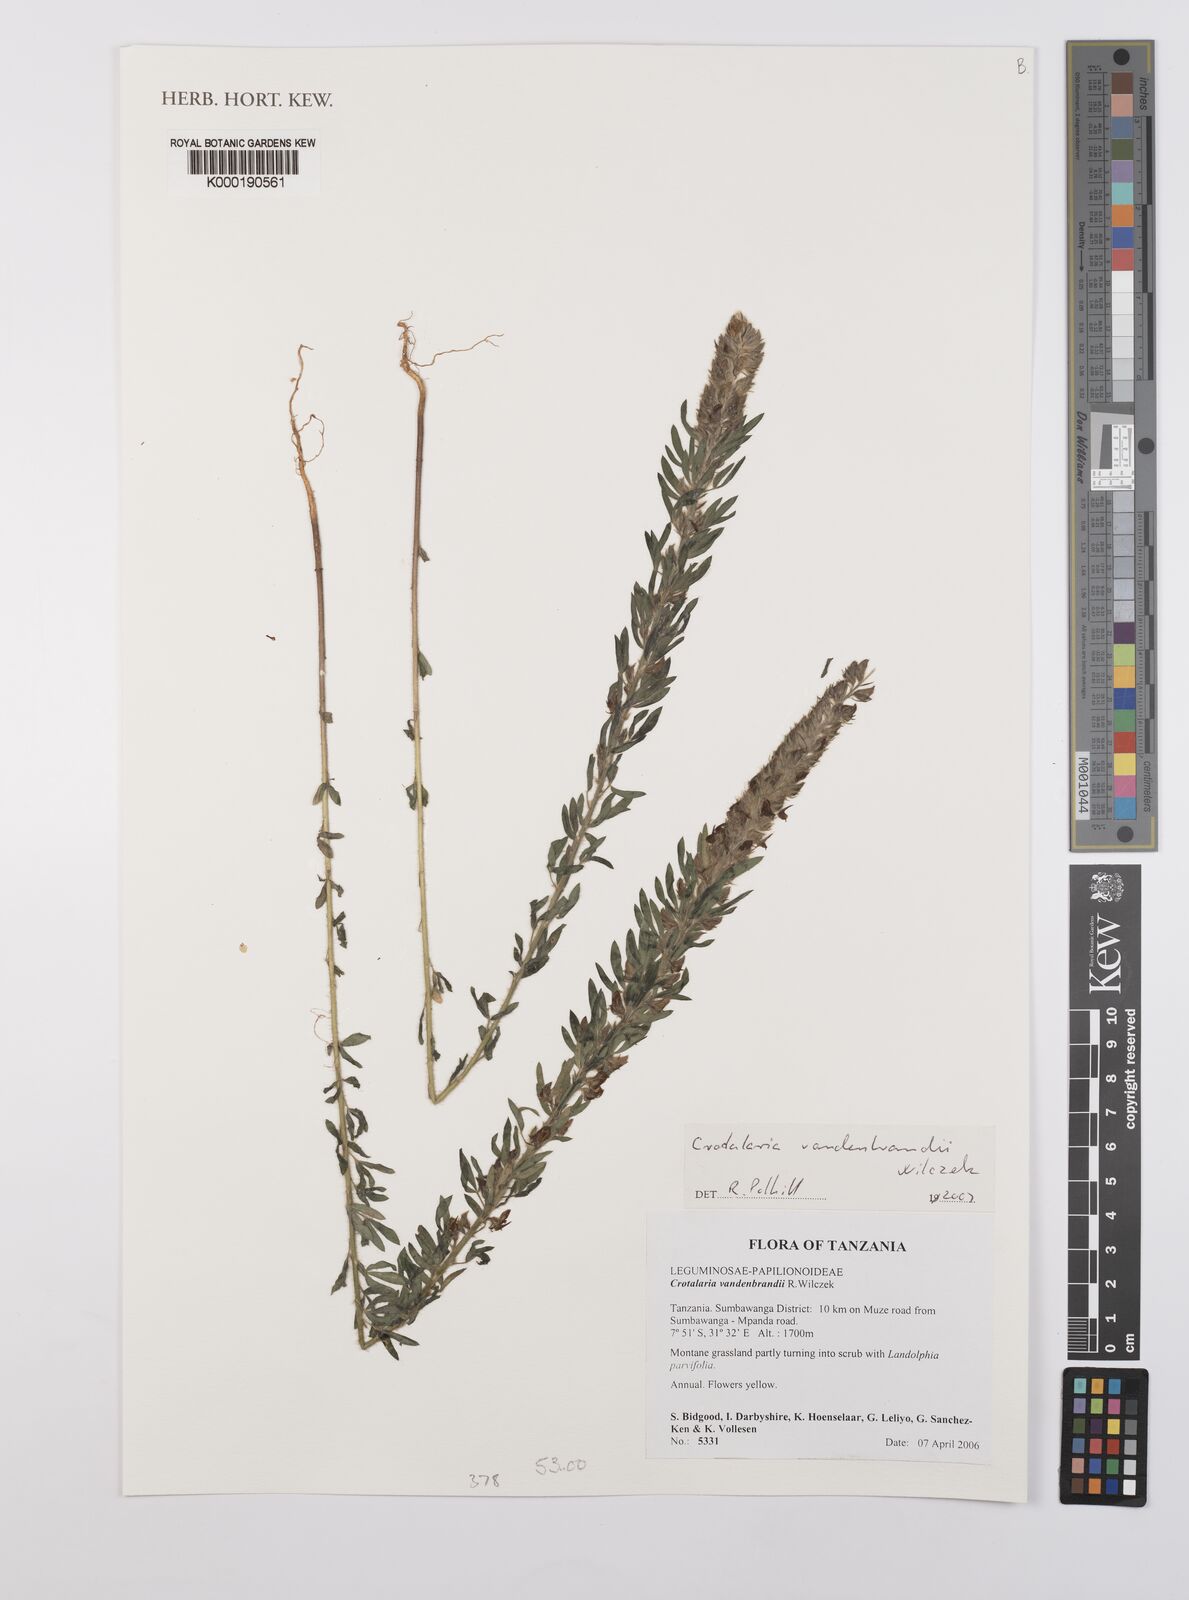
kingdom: Plantae
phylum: Tracheophyta
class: Magnoliopsida
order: Fabales
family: Fabaceae
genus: Crotalaria
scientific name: Crotalaria vandenbrandii
